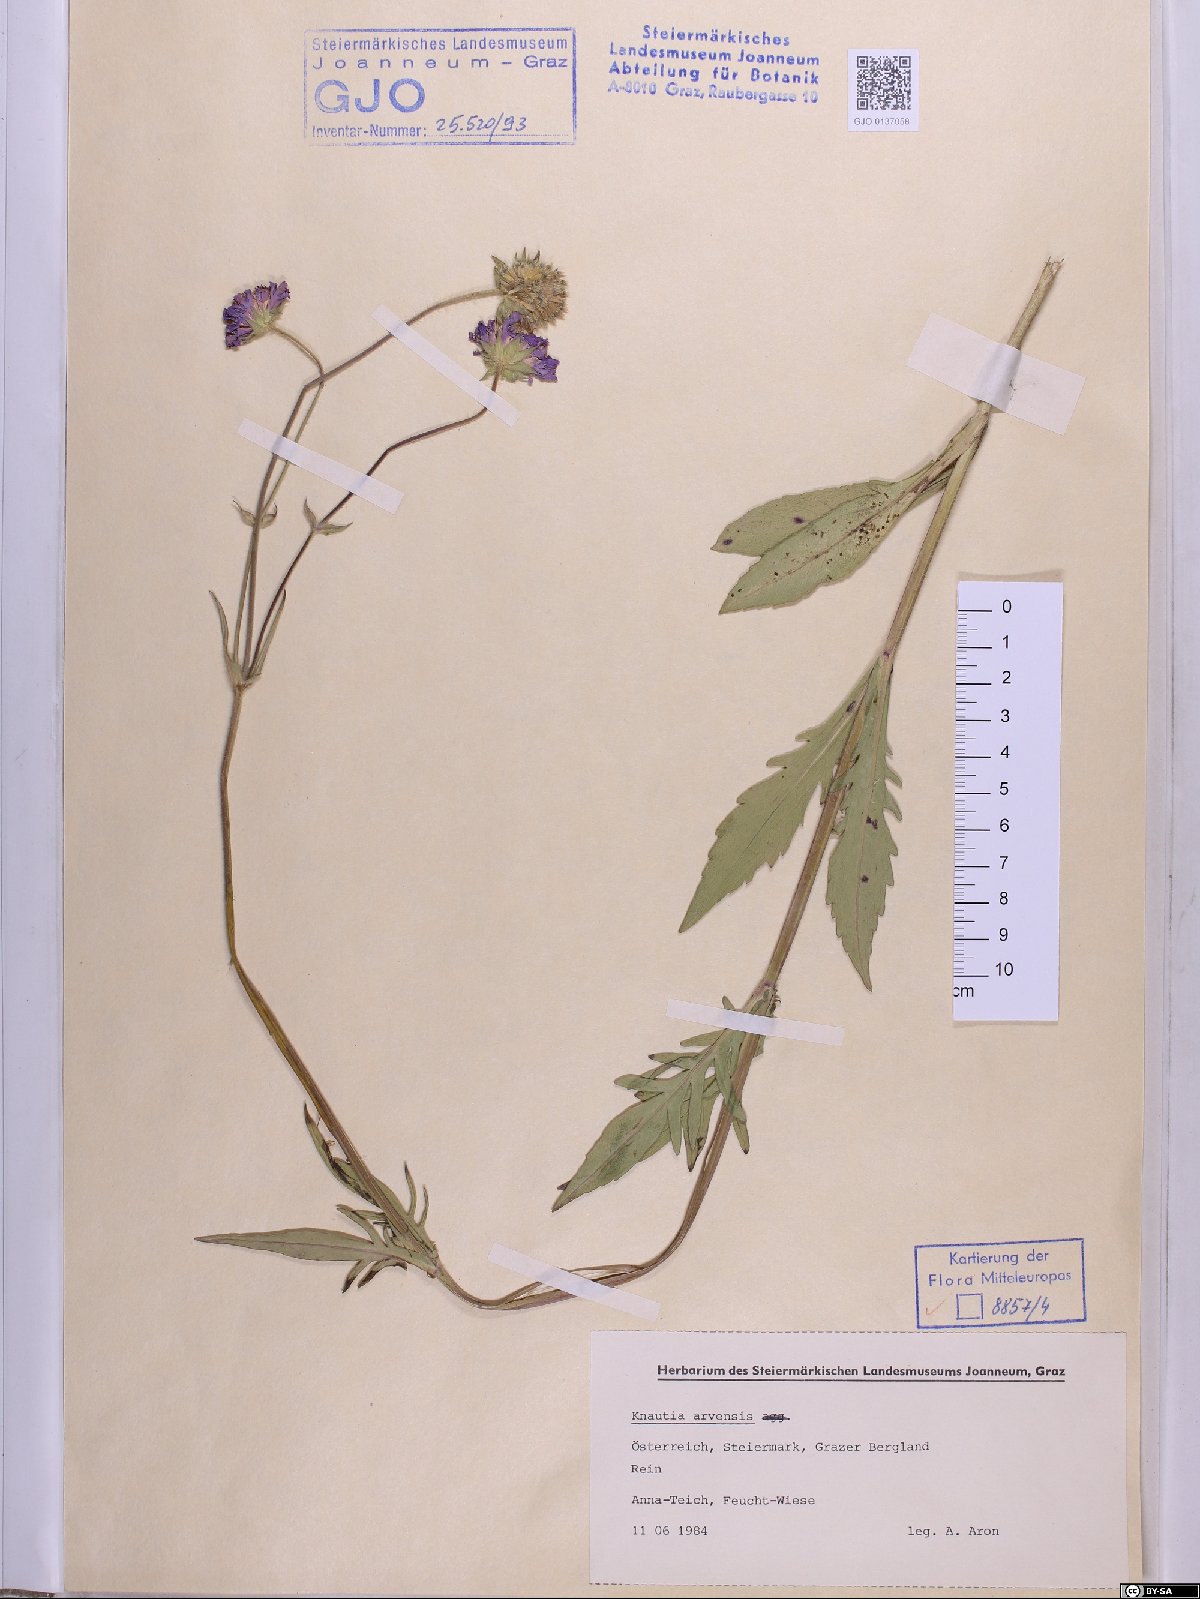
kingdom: Plantae
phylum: Tracheophyta
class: Magnoliopsida
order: Dipsacales
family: Caprifoliaceae
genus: Knautia
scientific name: Knautia arvensis
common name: Field scabiosa
